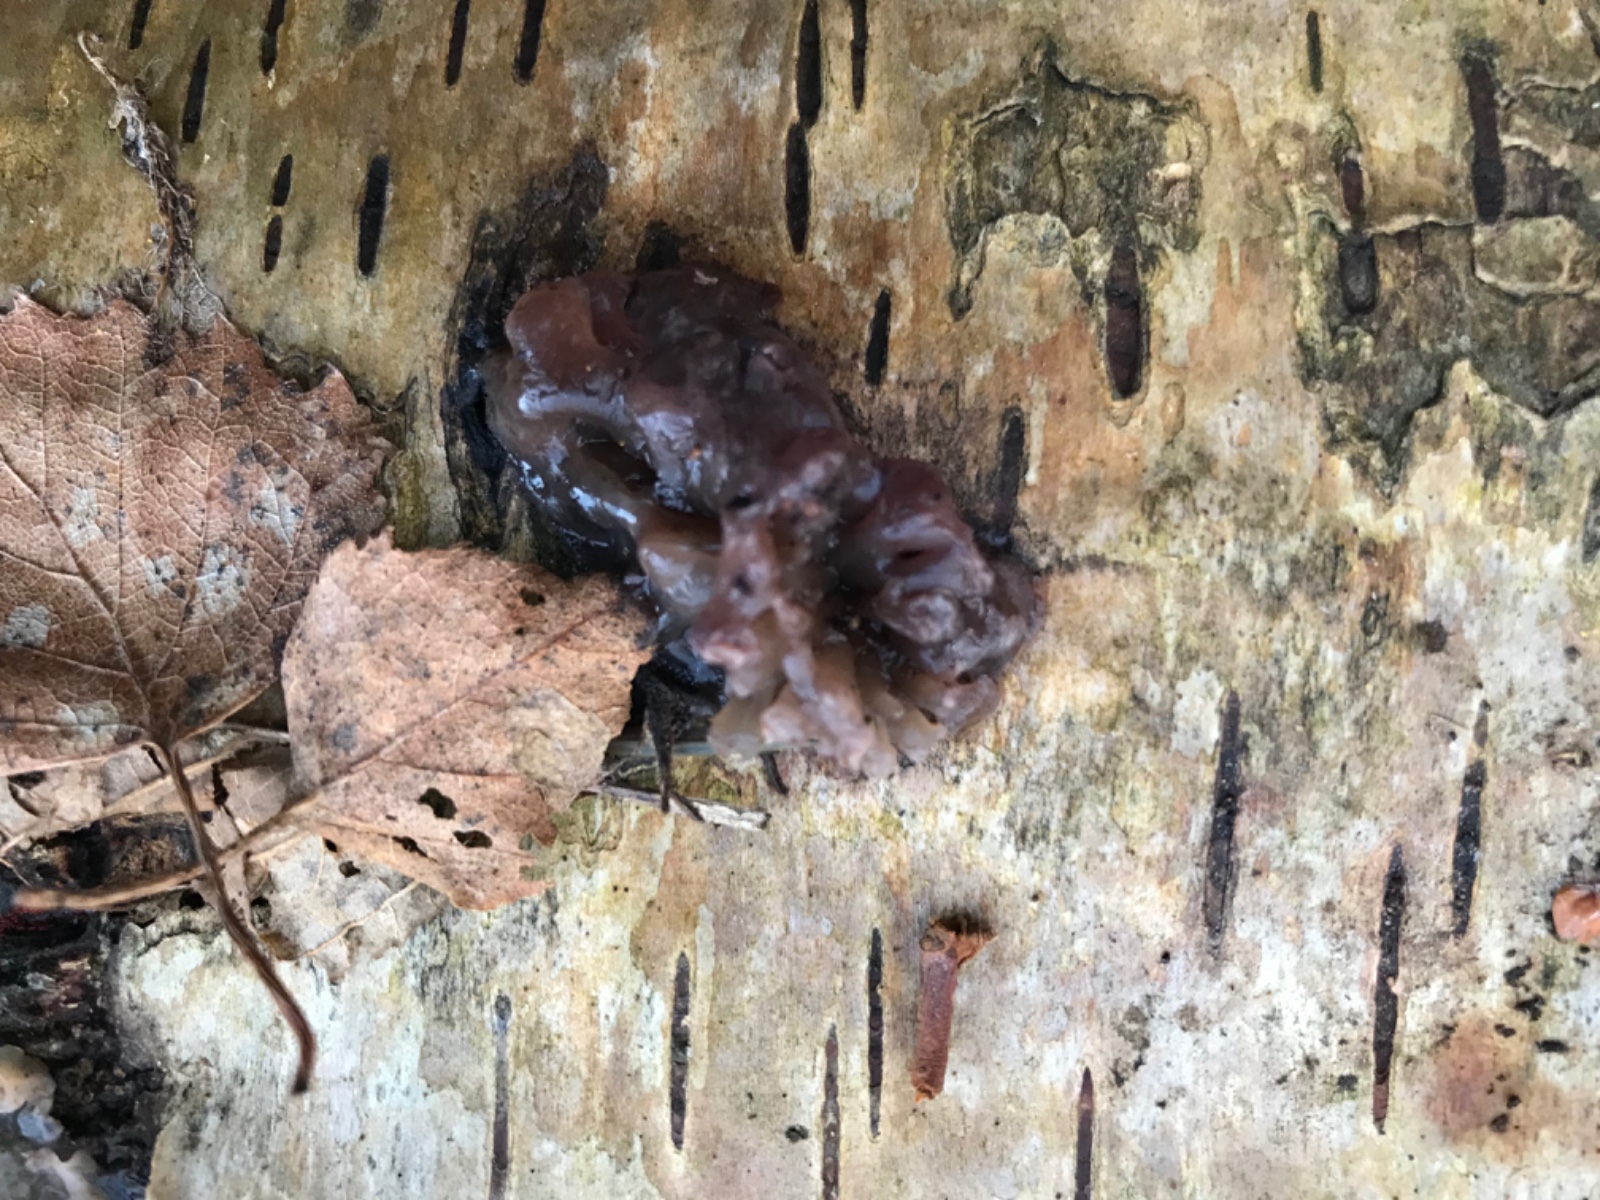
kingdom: Fungi
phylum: Ascomycota
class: Leotiomycetes
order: Helotiales
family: Gelatinodiscaceae
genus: Ascocoryne
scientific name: Ascocoryne
